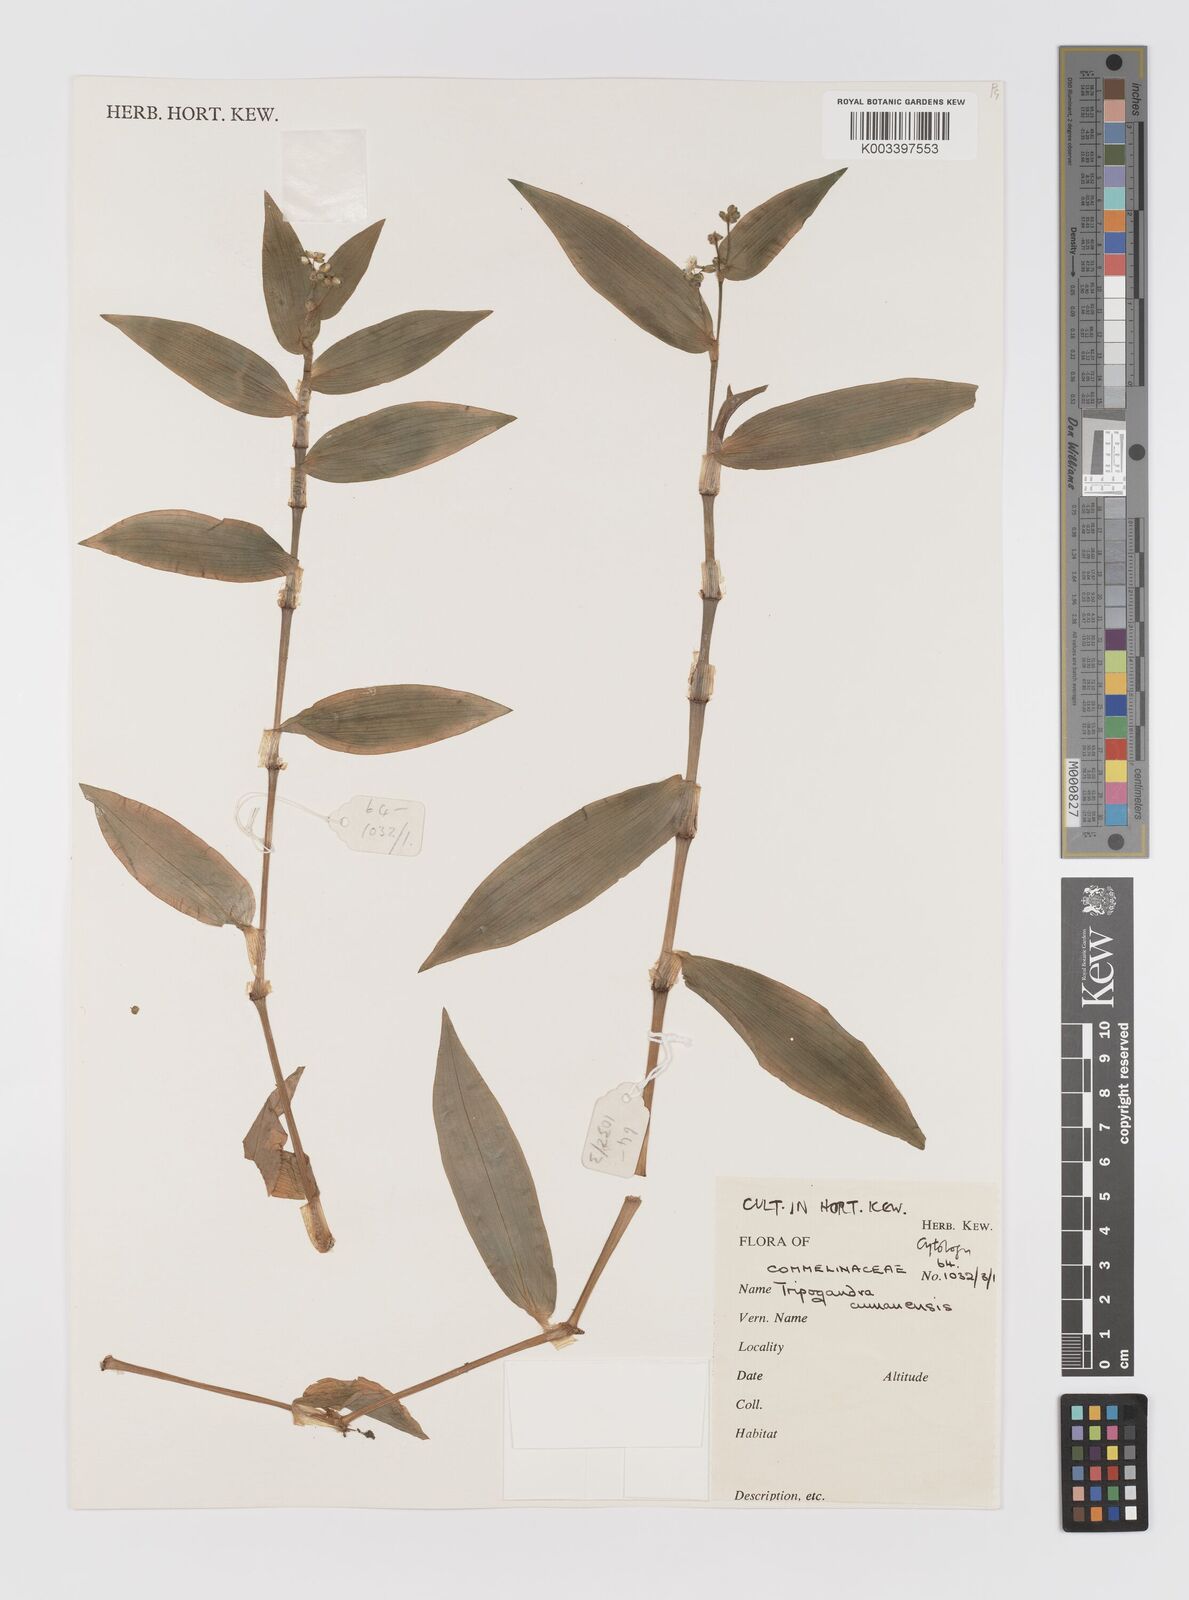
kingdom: Plantae
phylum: Tracheophyta
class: Liliopsida
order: Commelinales
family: Commelinaceae
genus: Callisia
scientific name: Callisia serrulata
